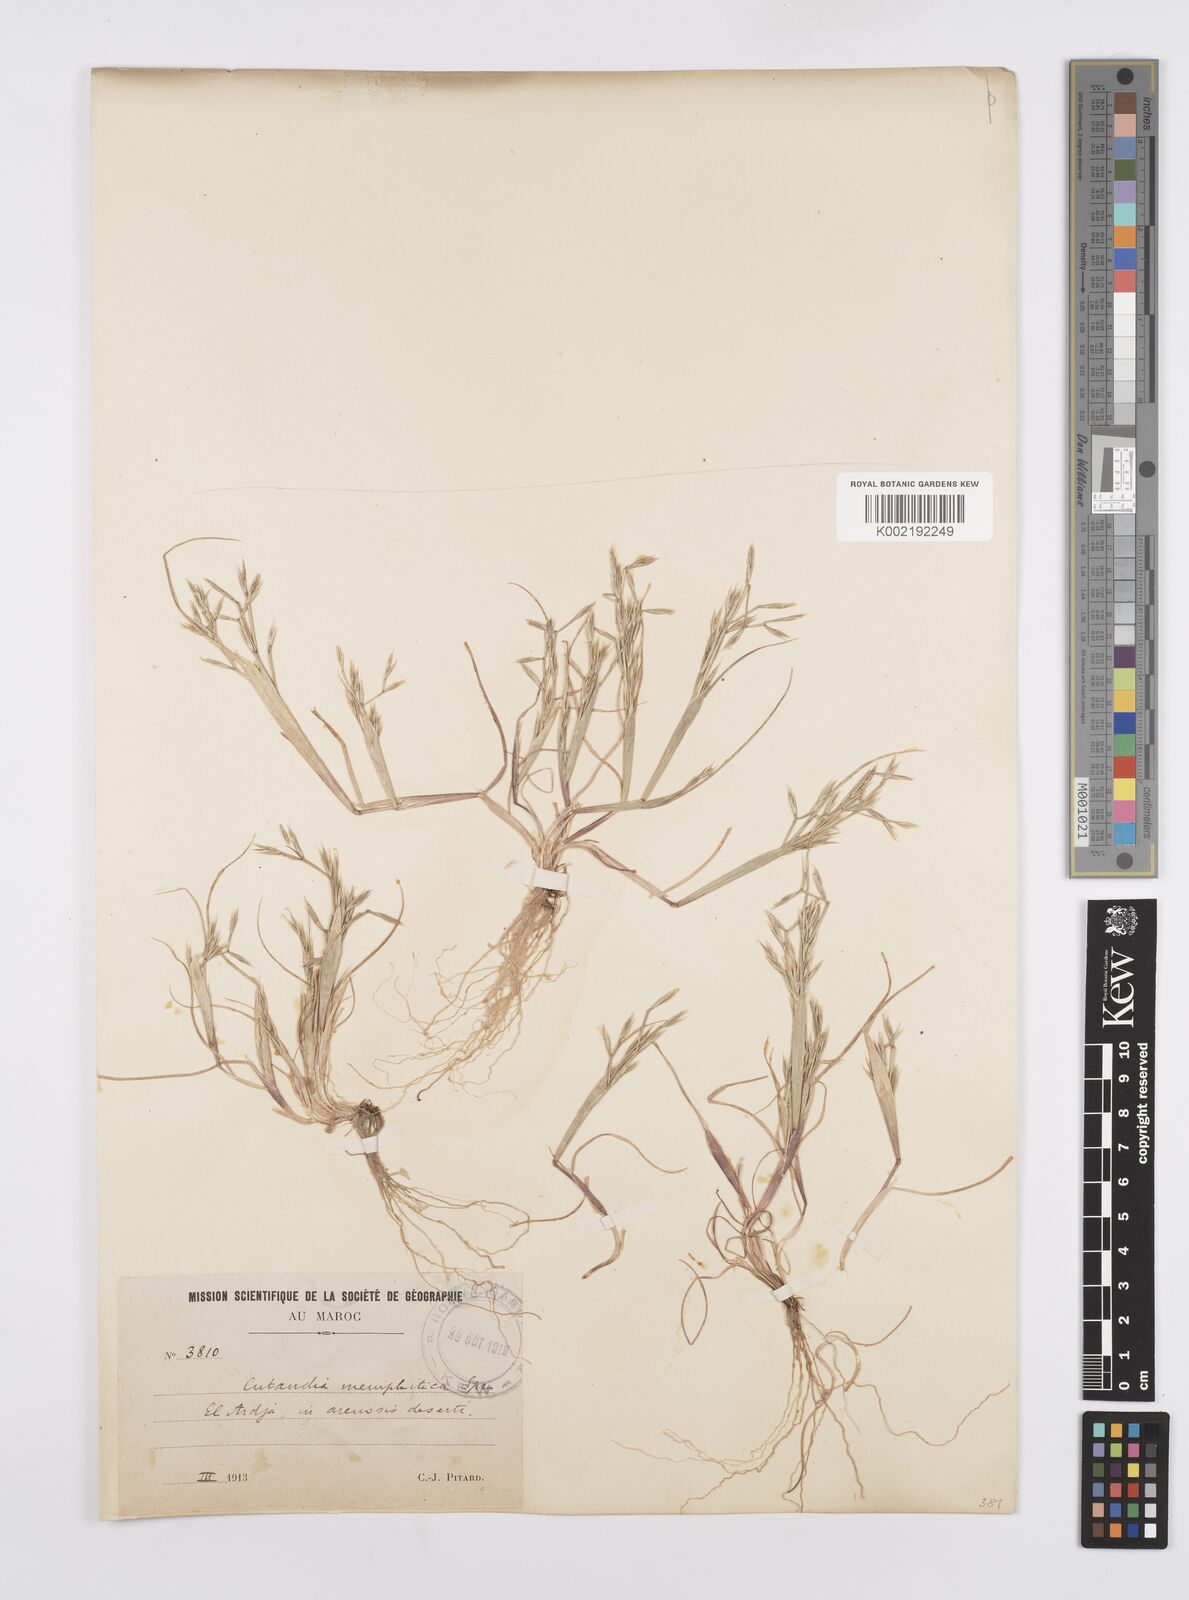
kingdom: Plantae
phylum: Tracheophyta
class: Liliopsida
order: Poales
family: Poaceae
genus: Cutandia
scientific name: Cutandia memphitica
